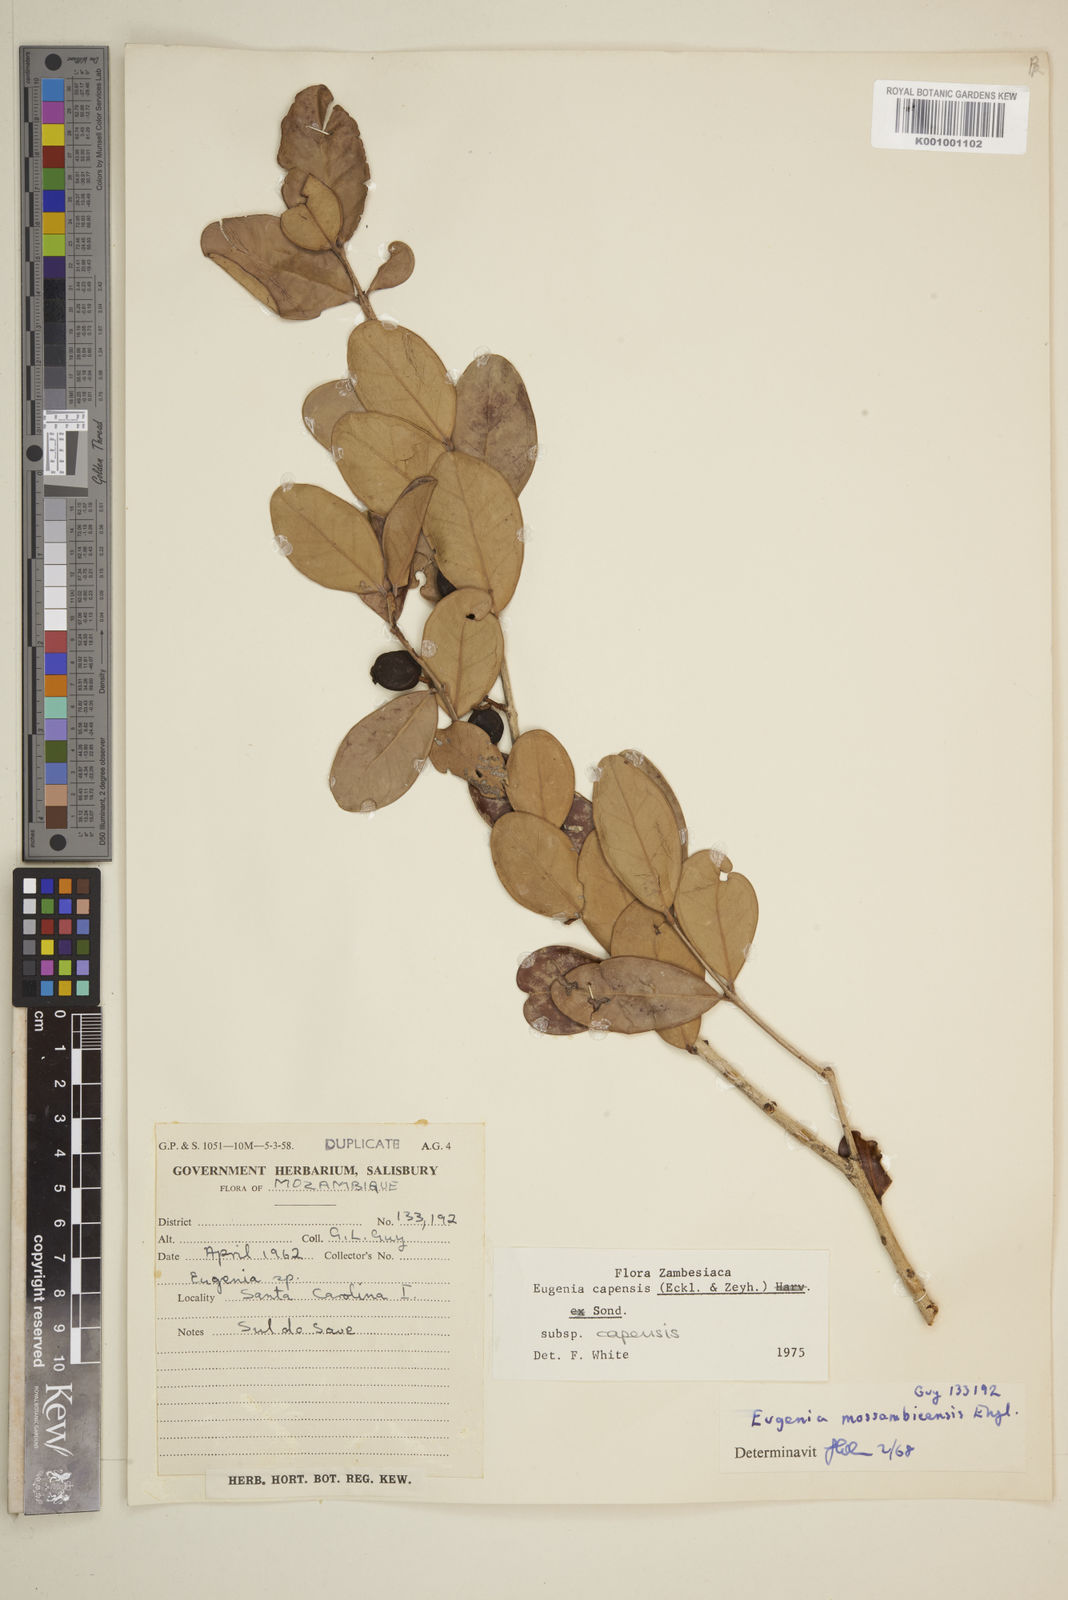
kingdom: Plantae
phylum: Tracheophyta
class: Magnoliopsida
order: Myrtales
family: Myrtaceae
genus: Eugenia
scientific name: Eugenia capensis
